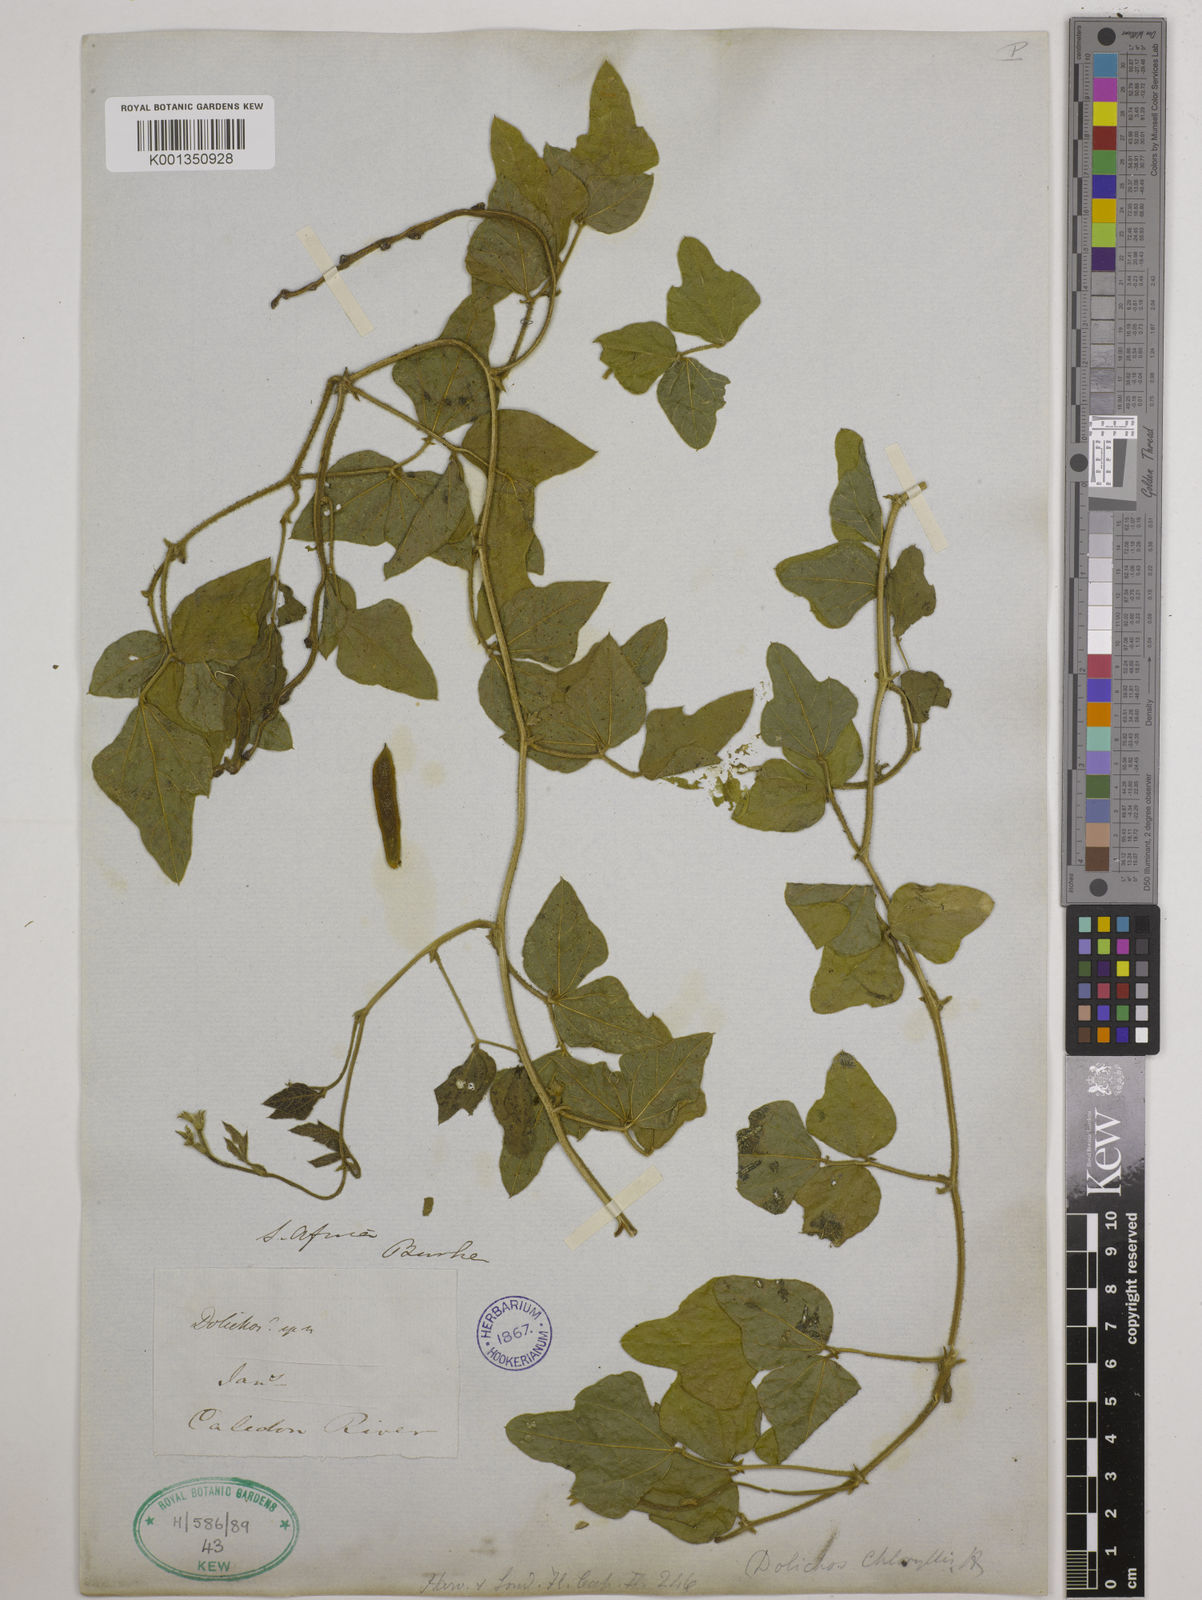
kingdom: Plantae
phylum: Tracheophyta
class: Magnoliopsida
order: Fabales
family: Fabaceae
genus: Dolichos
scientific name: Dolichos pratensis
